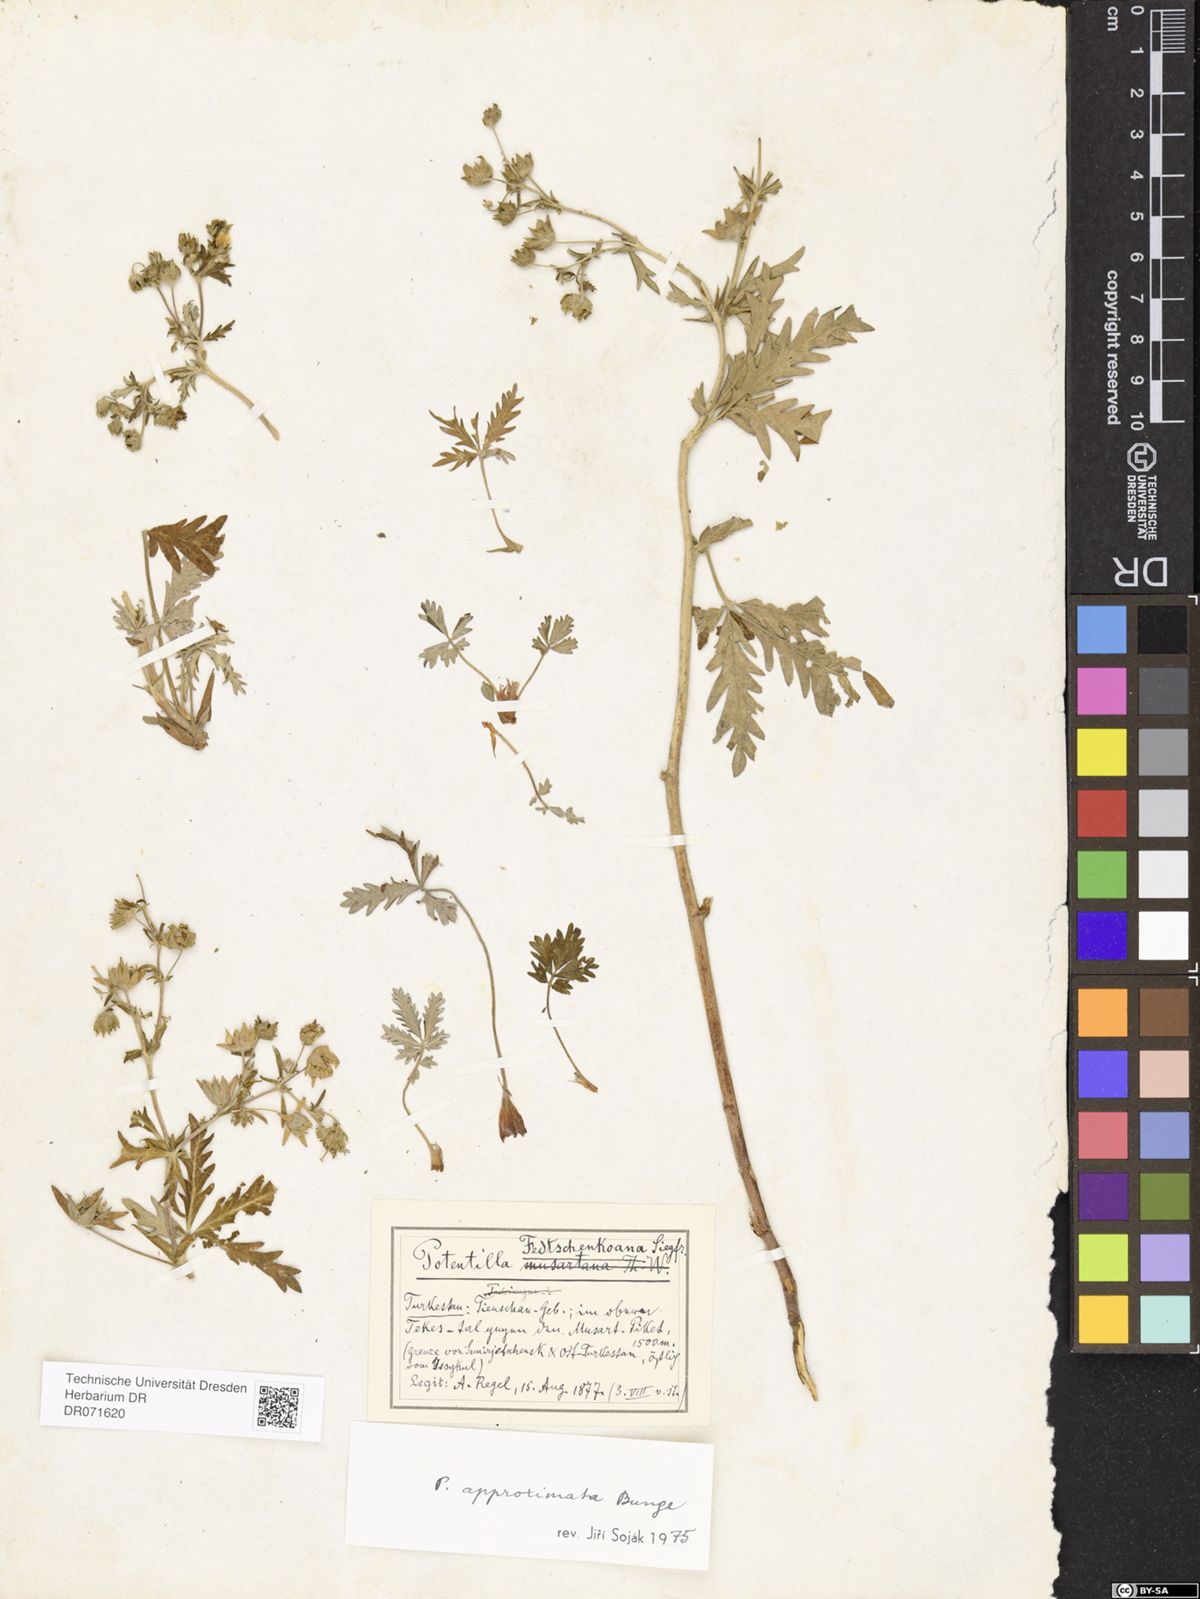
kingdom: Plantae
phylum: Tracheophyta
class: Magnoliopsida
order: Rosales
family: Rosaceae
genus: Potentilla
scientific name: Potentilla fedtschenkoana
